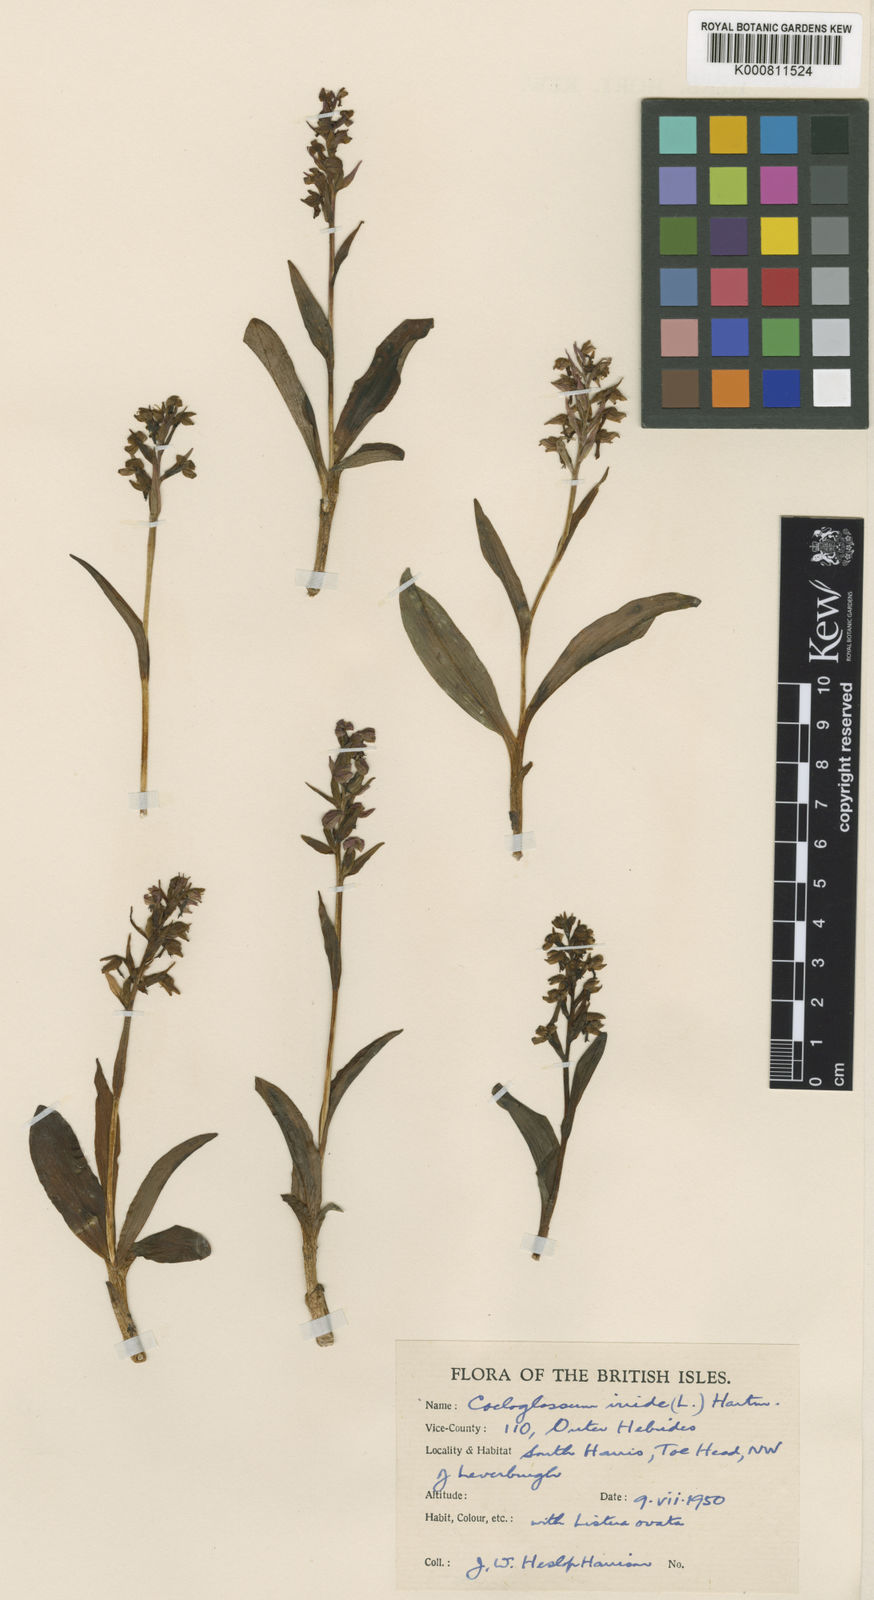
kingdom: Plantae
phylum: Tracheophyta
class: Liliopsida
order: Asparagales
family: Orchidaceae
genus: Dactylorhiza
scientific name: Dactylorhiza viridis
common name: Longbract frog orchid
